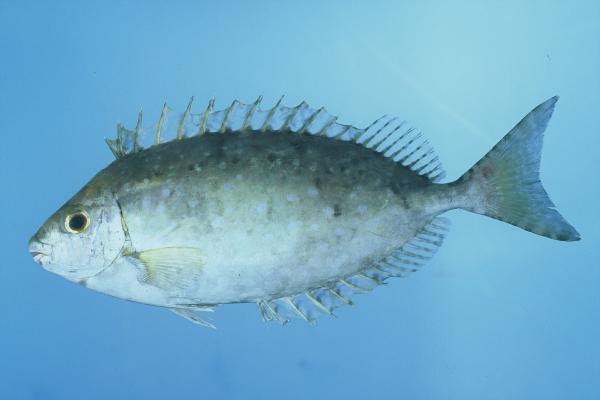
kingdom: Animalia
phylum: Chordata
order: Perciformes
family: Siganidae
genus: Siganus
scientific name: Siganus sutor
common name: Shoemaker spinefoot
